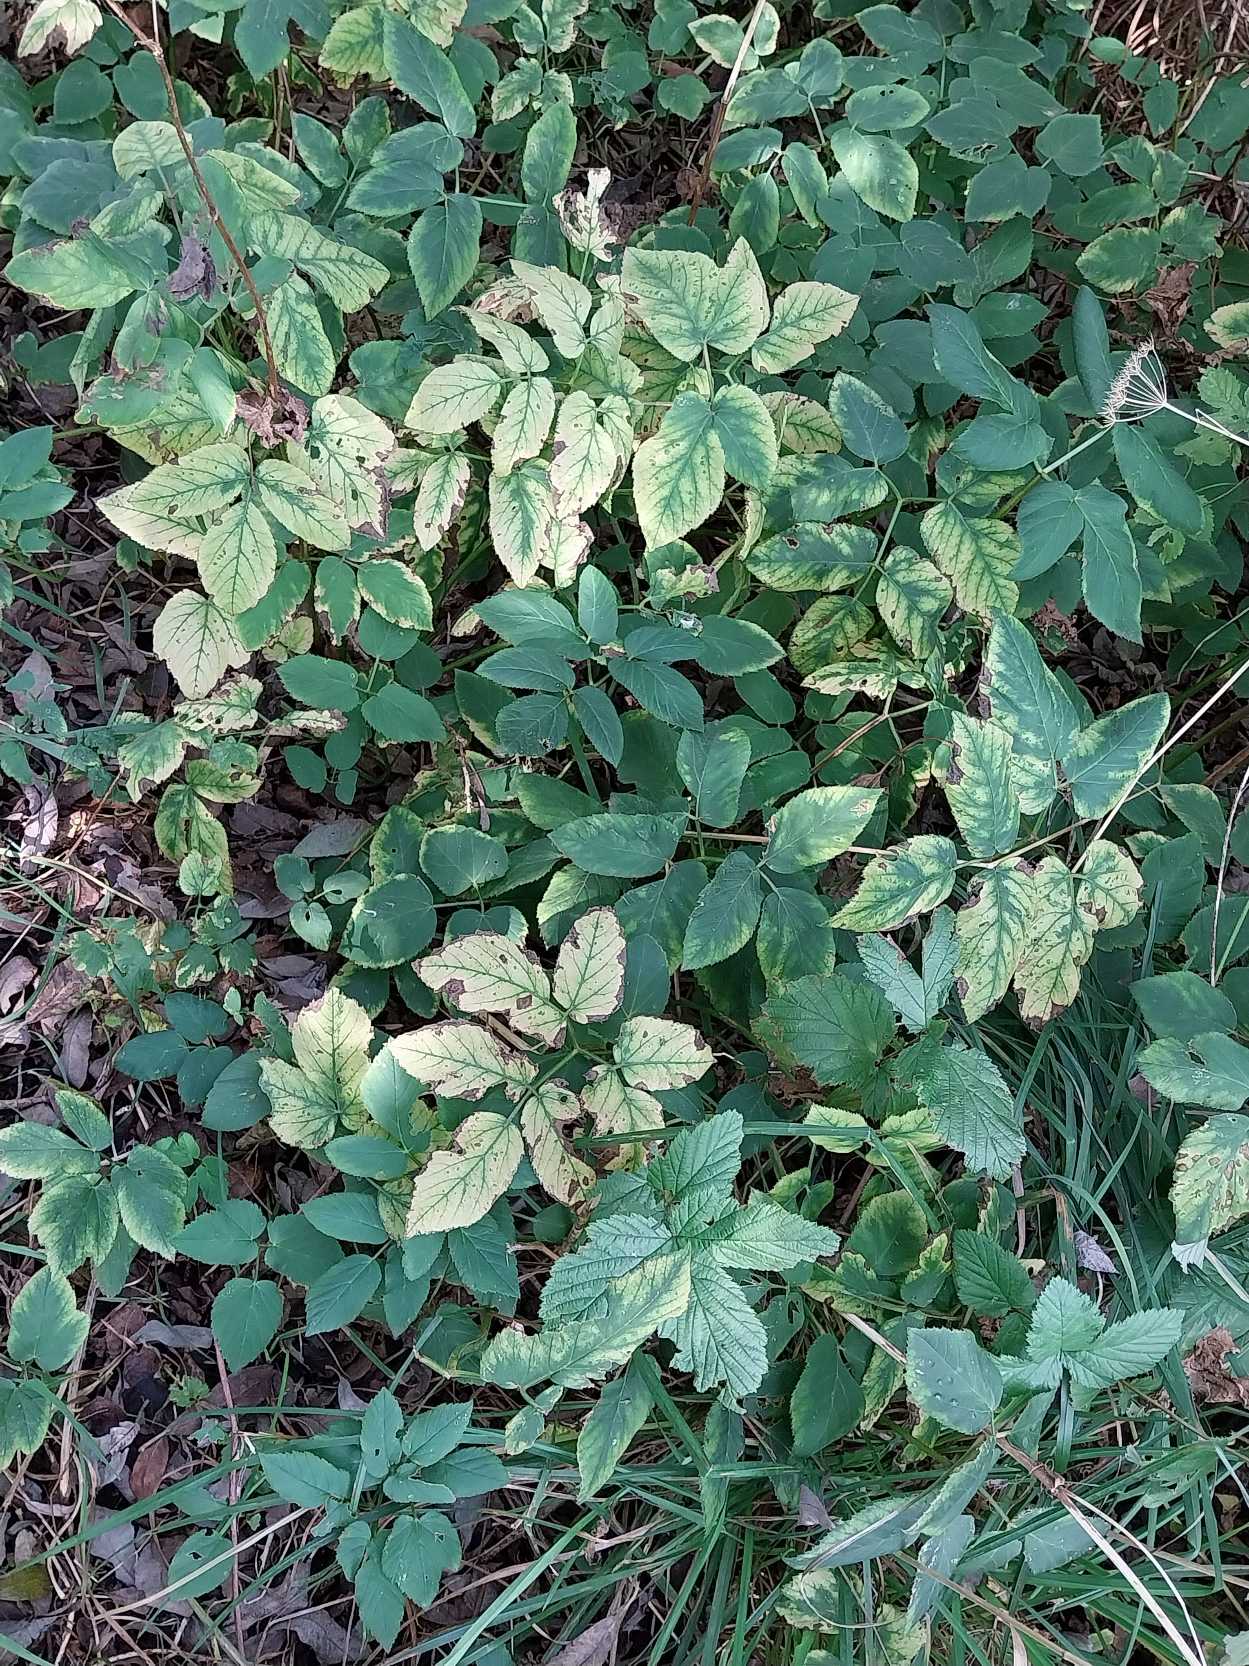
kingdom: Plantae
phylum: Tracheophyta
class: Magnoliopsida
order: Apiales
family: Apiaceae
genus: Aegopodium
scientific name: Aegopodium podagraria
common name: Skvalderkål
